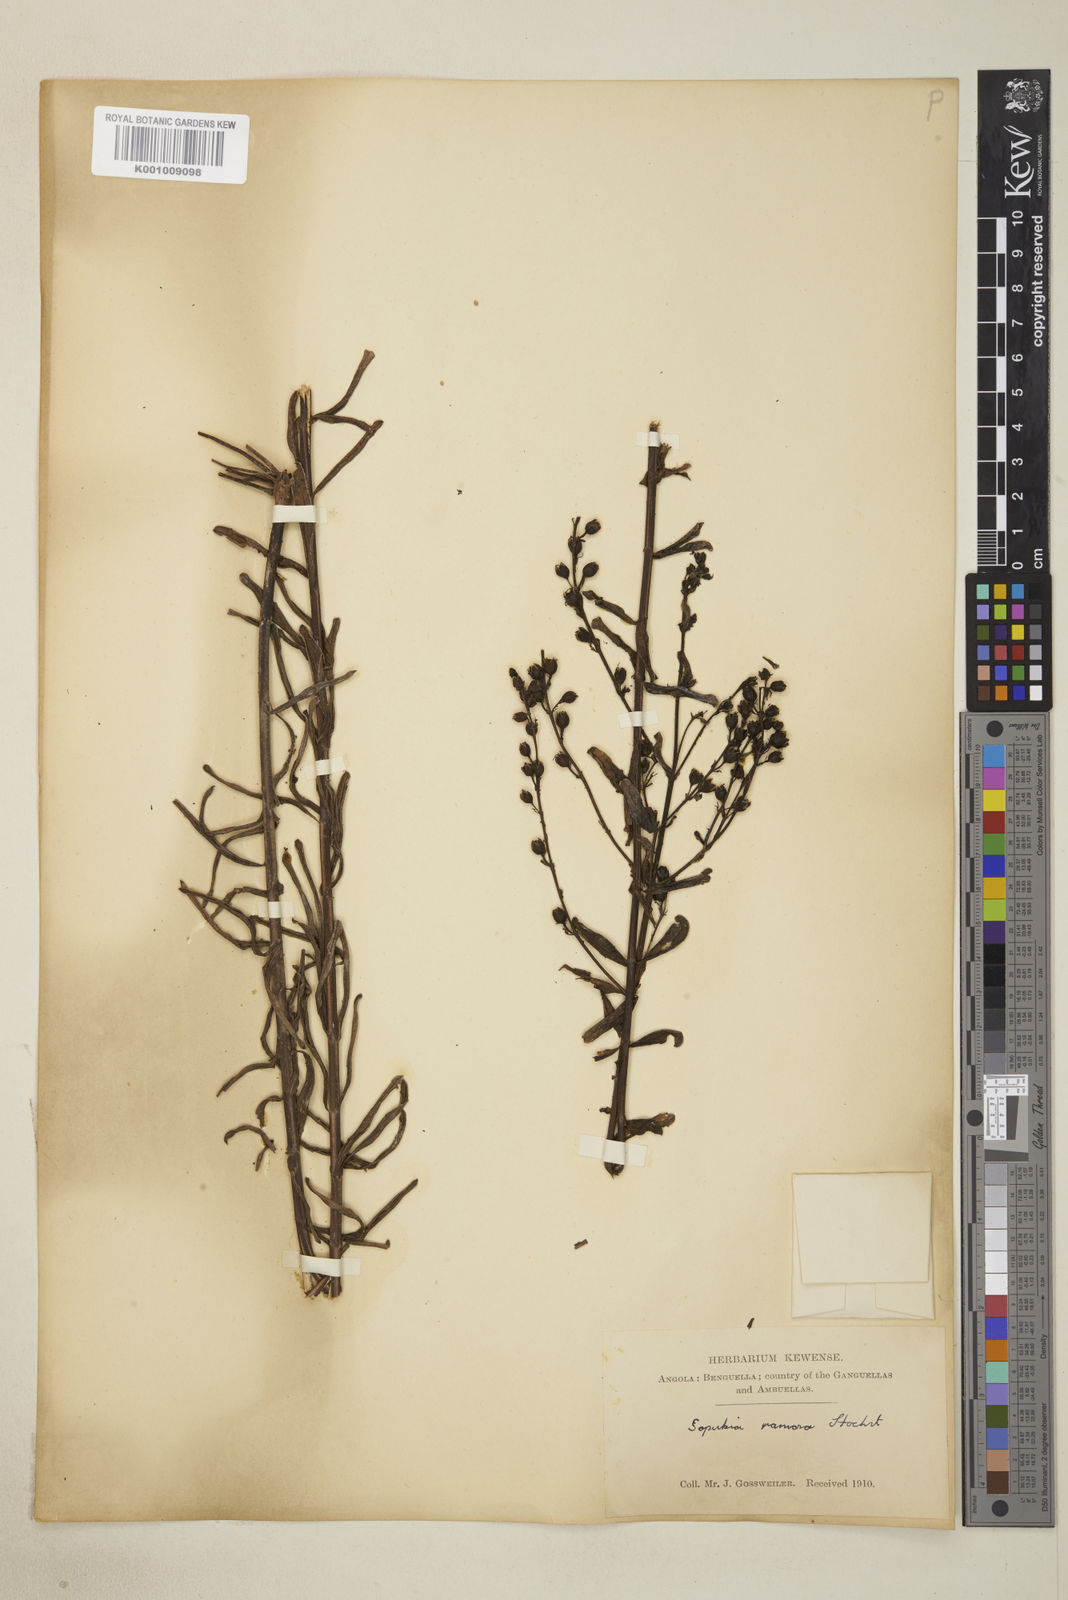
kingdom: Plantae
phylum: Tracheophyta
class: Magnoliopsida
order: Lamiales
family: Orobanchaceae
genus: Sopubia
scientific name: Sopubia ramosa
